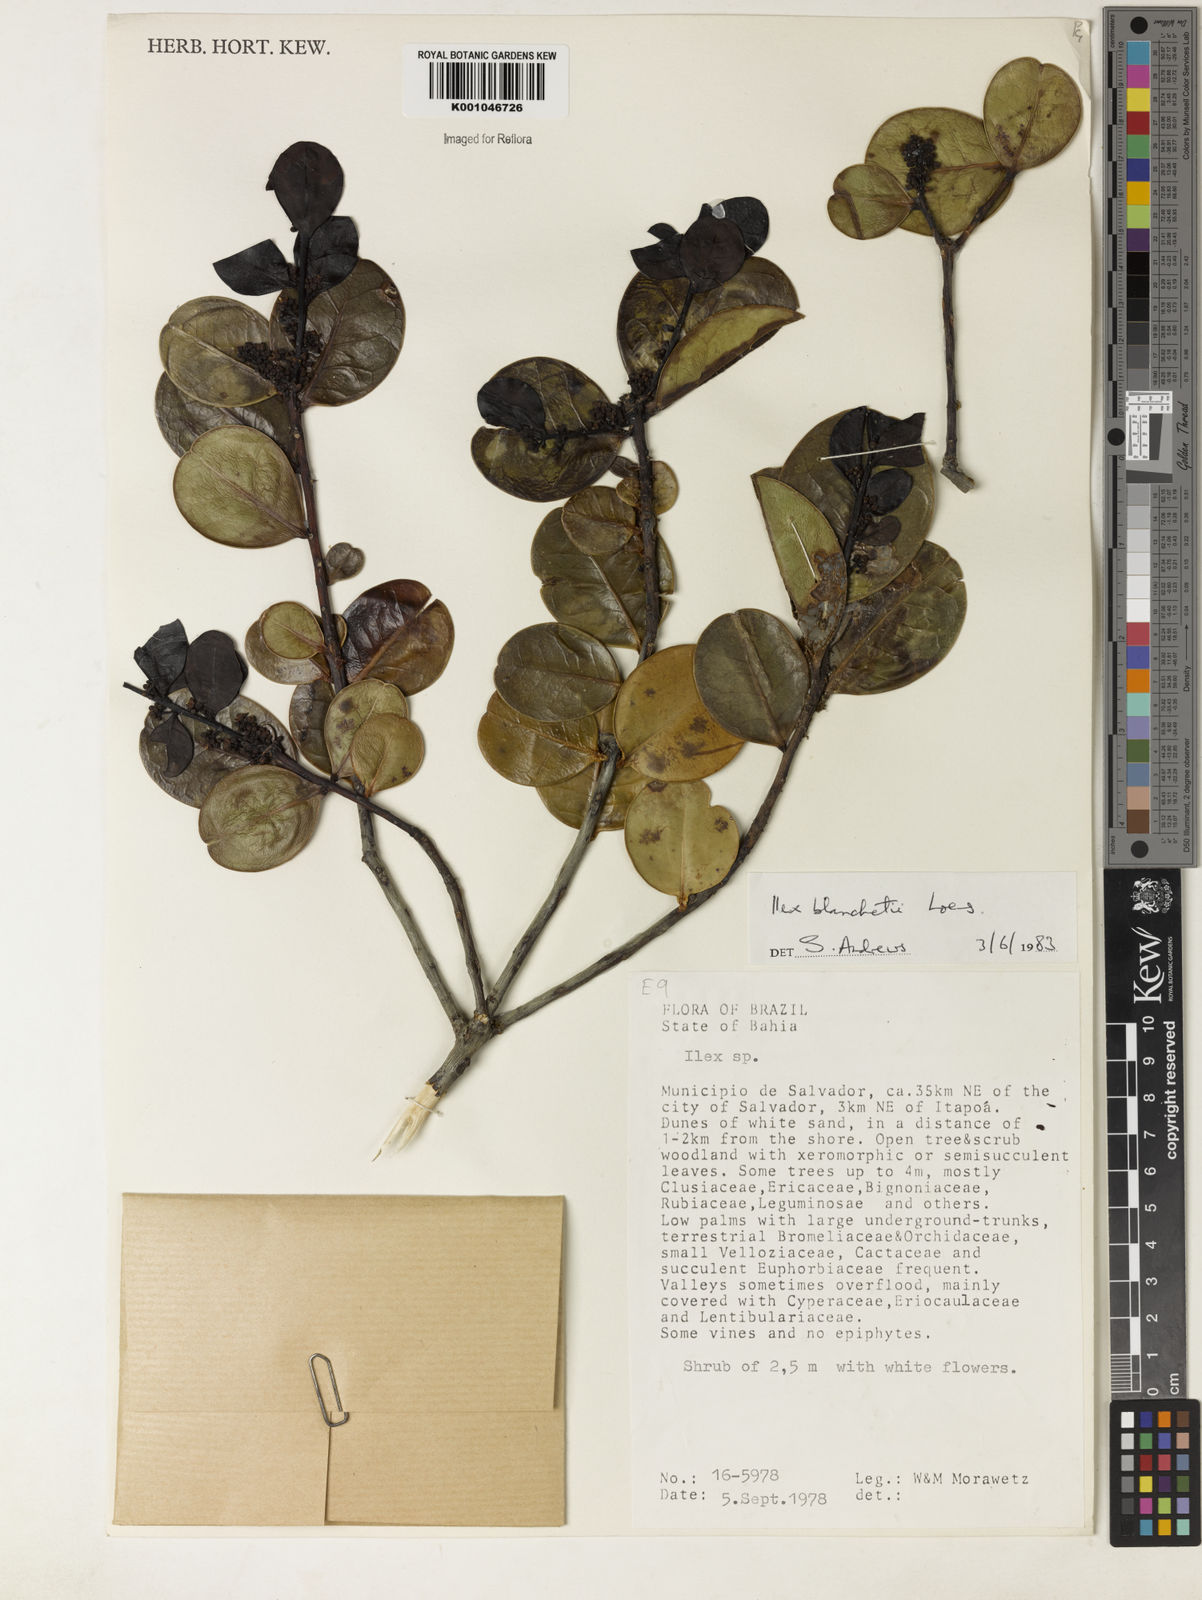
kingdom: Plantae
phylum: Tracheophyta
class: Magnoliopsida
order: Aquifoliales
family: Aquifoliaceae
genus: Ilex
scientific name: Ilex blanchetii
